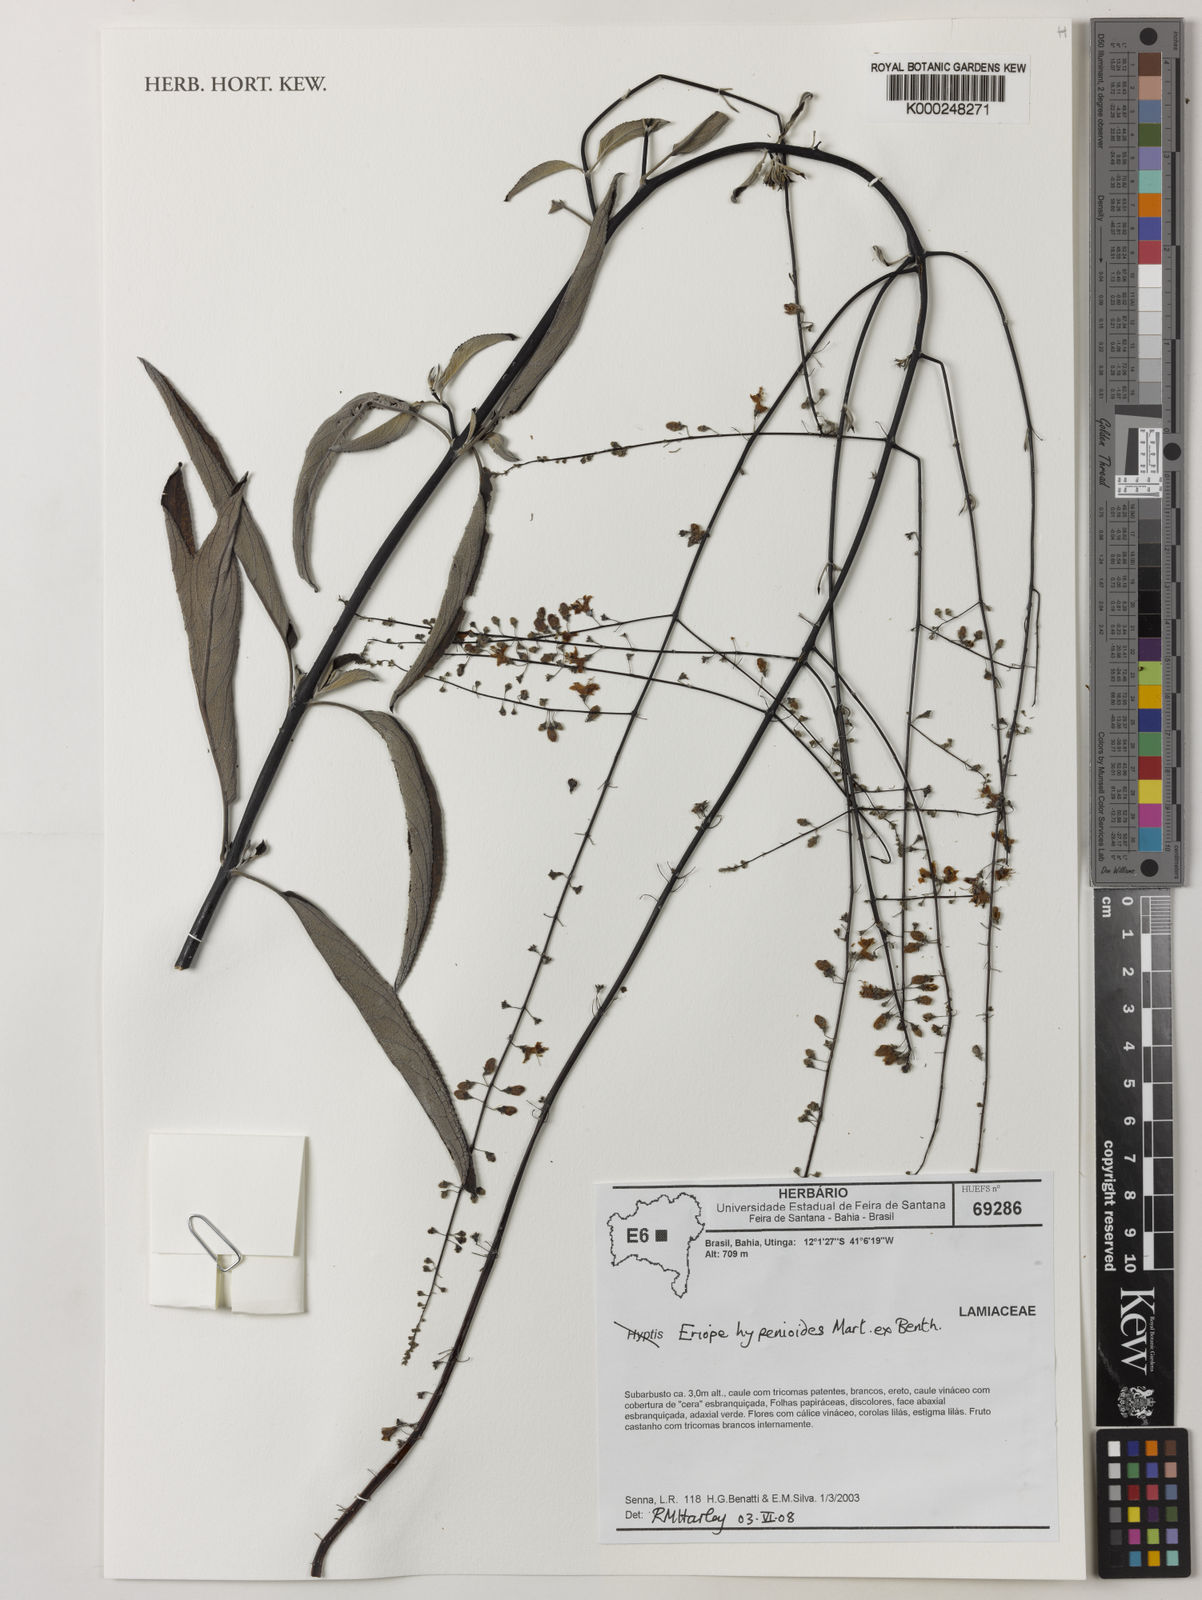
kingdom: Plantae
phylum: Tracheophyta
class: Magnoliopsida
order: Lamiales
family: Lamiaceae
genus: Eriope
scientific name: Eriope hypenioides
